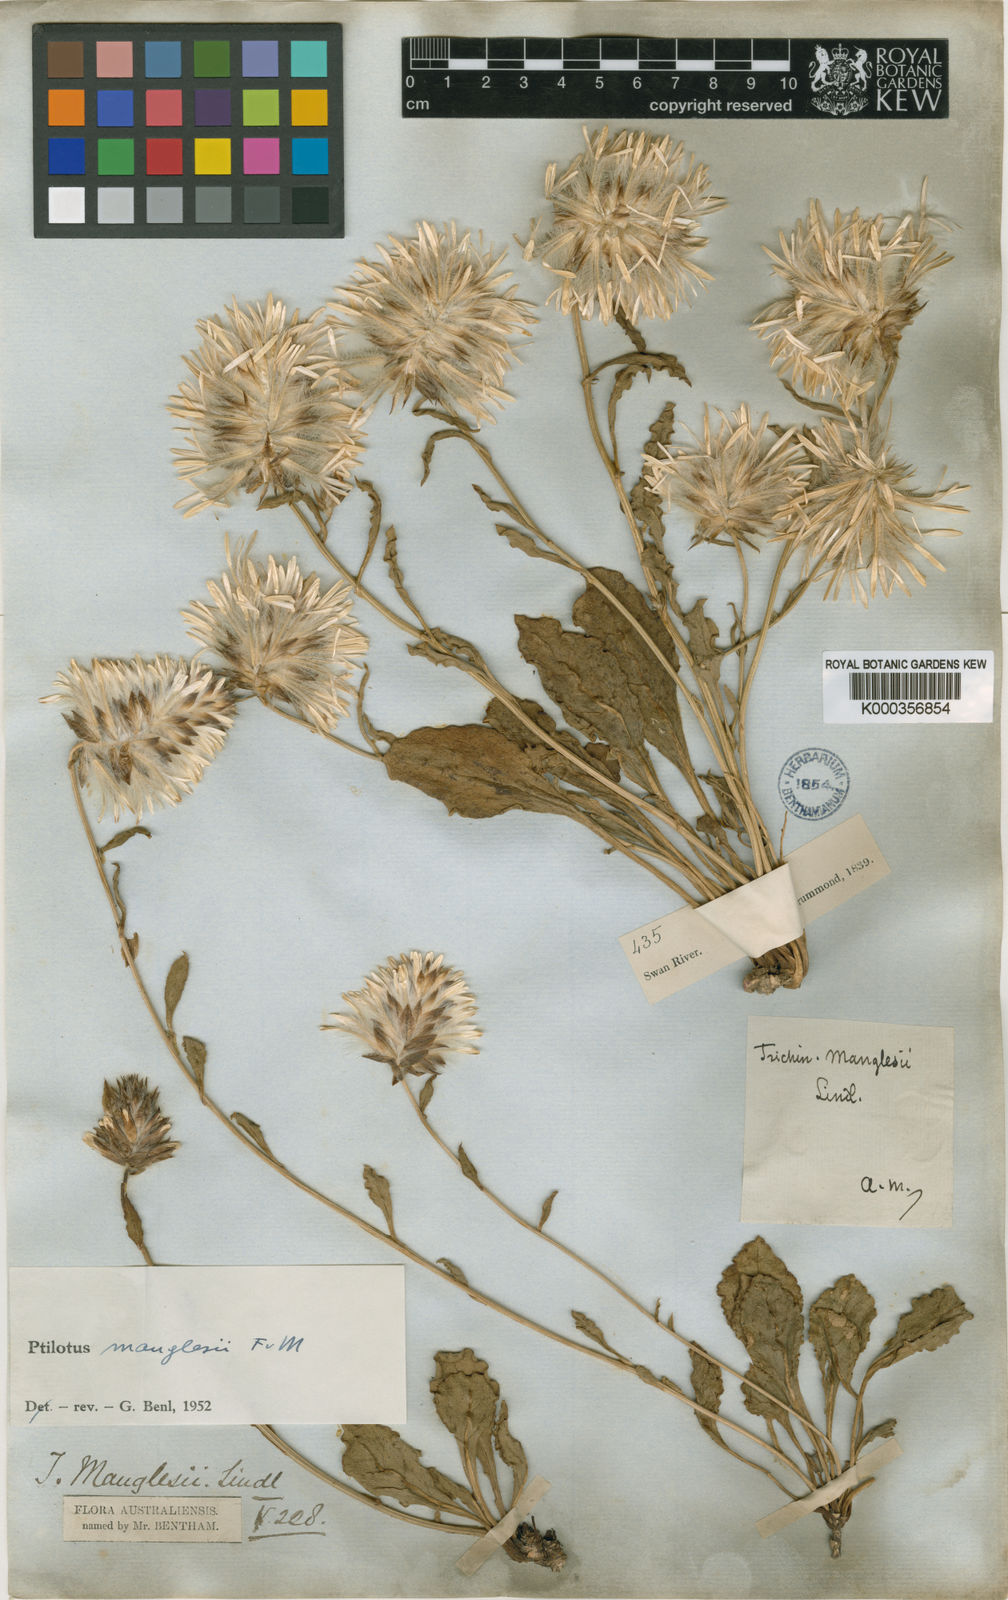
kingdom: Plantae
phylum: Tracheophyta
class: Magnoliopsida
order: Caryophyllales
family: Amaranthaceae
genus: Ptilotus
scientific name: Ptilotus manglesii
